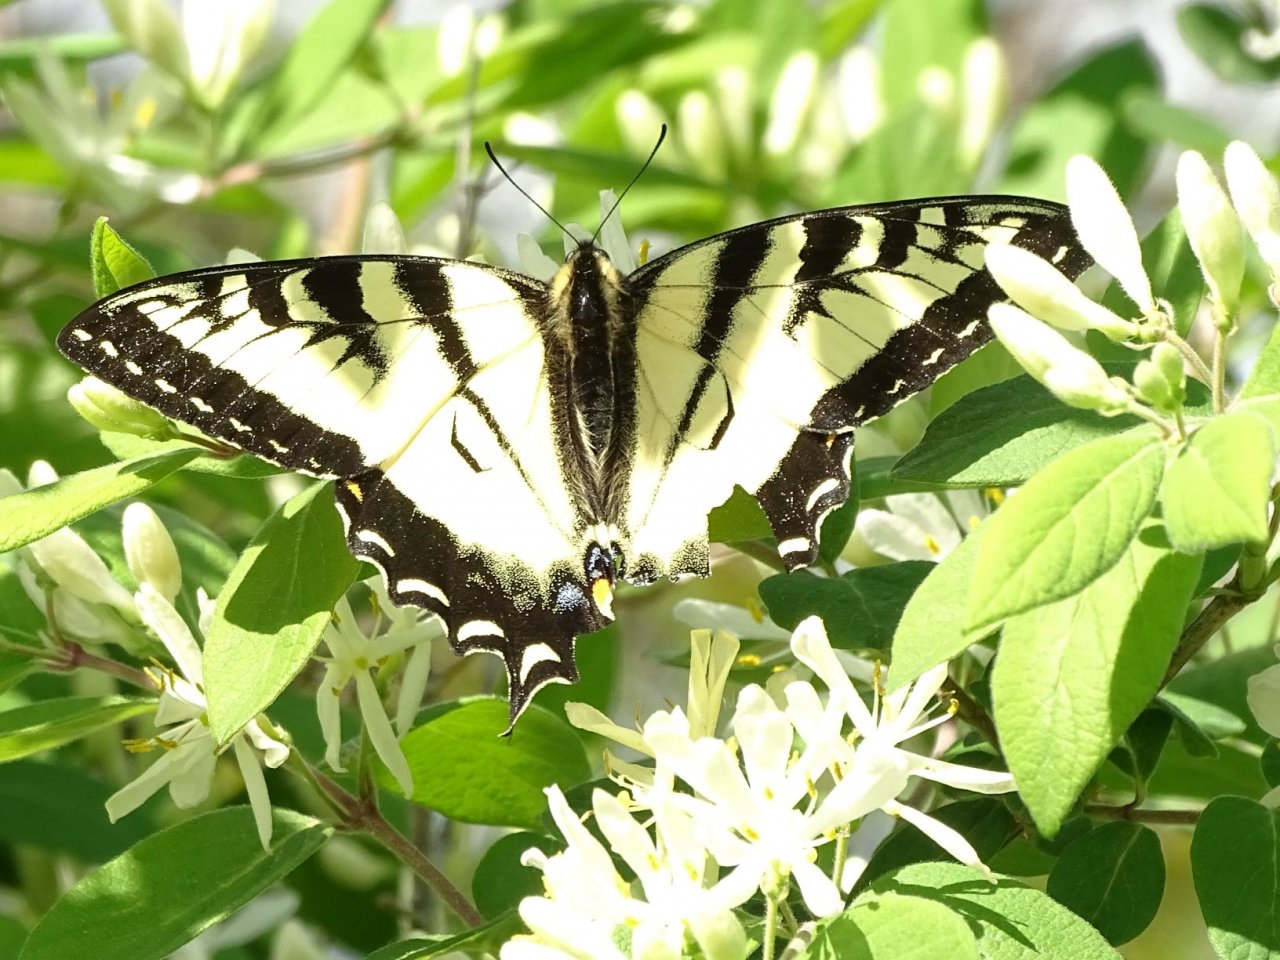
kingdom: Animalia
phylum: Arthropoda
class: Insecta
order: Lepidoptera
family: Papilionidae
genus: Pterourus
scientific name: Pterourus canadensis
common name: Canadian Tiger Swallowtail
